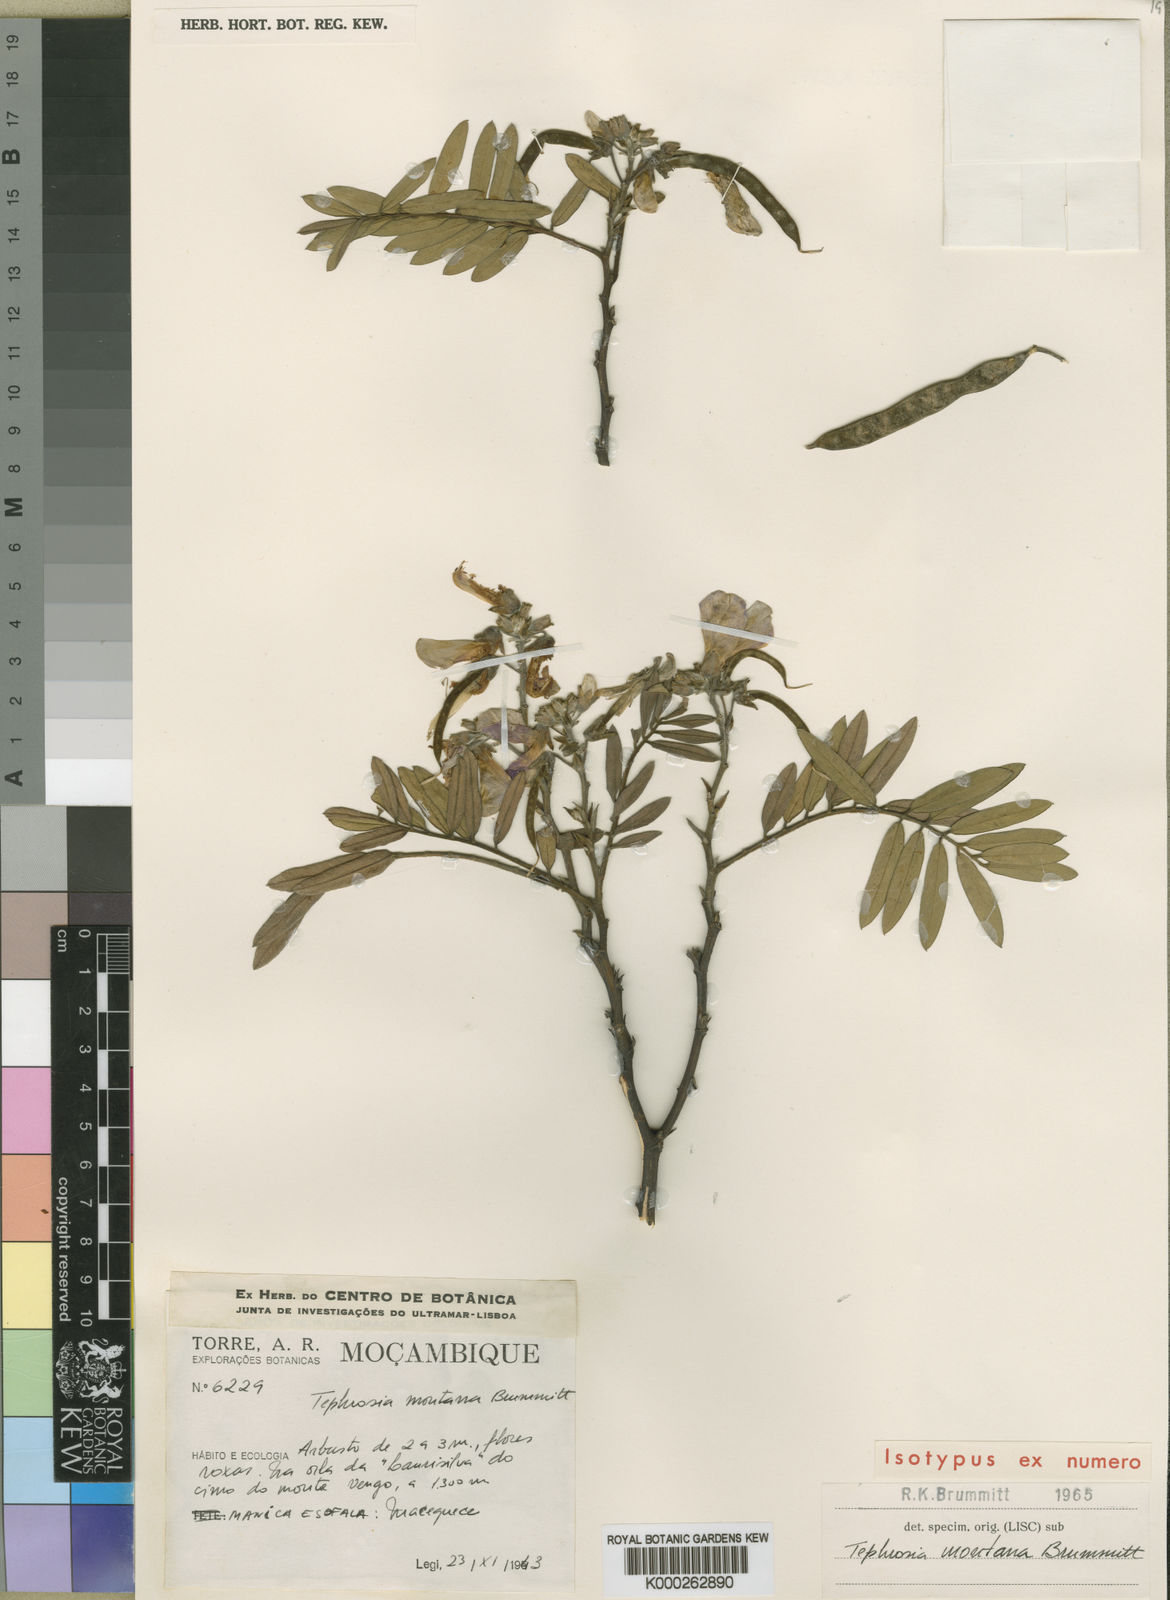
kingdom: Plantae
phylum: Tracheophyta
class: Magnoliopsida
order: Fabales
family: Fabaceae
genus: Tephrosia
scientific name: Tephrosia montana
